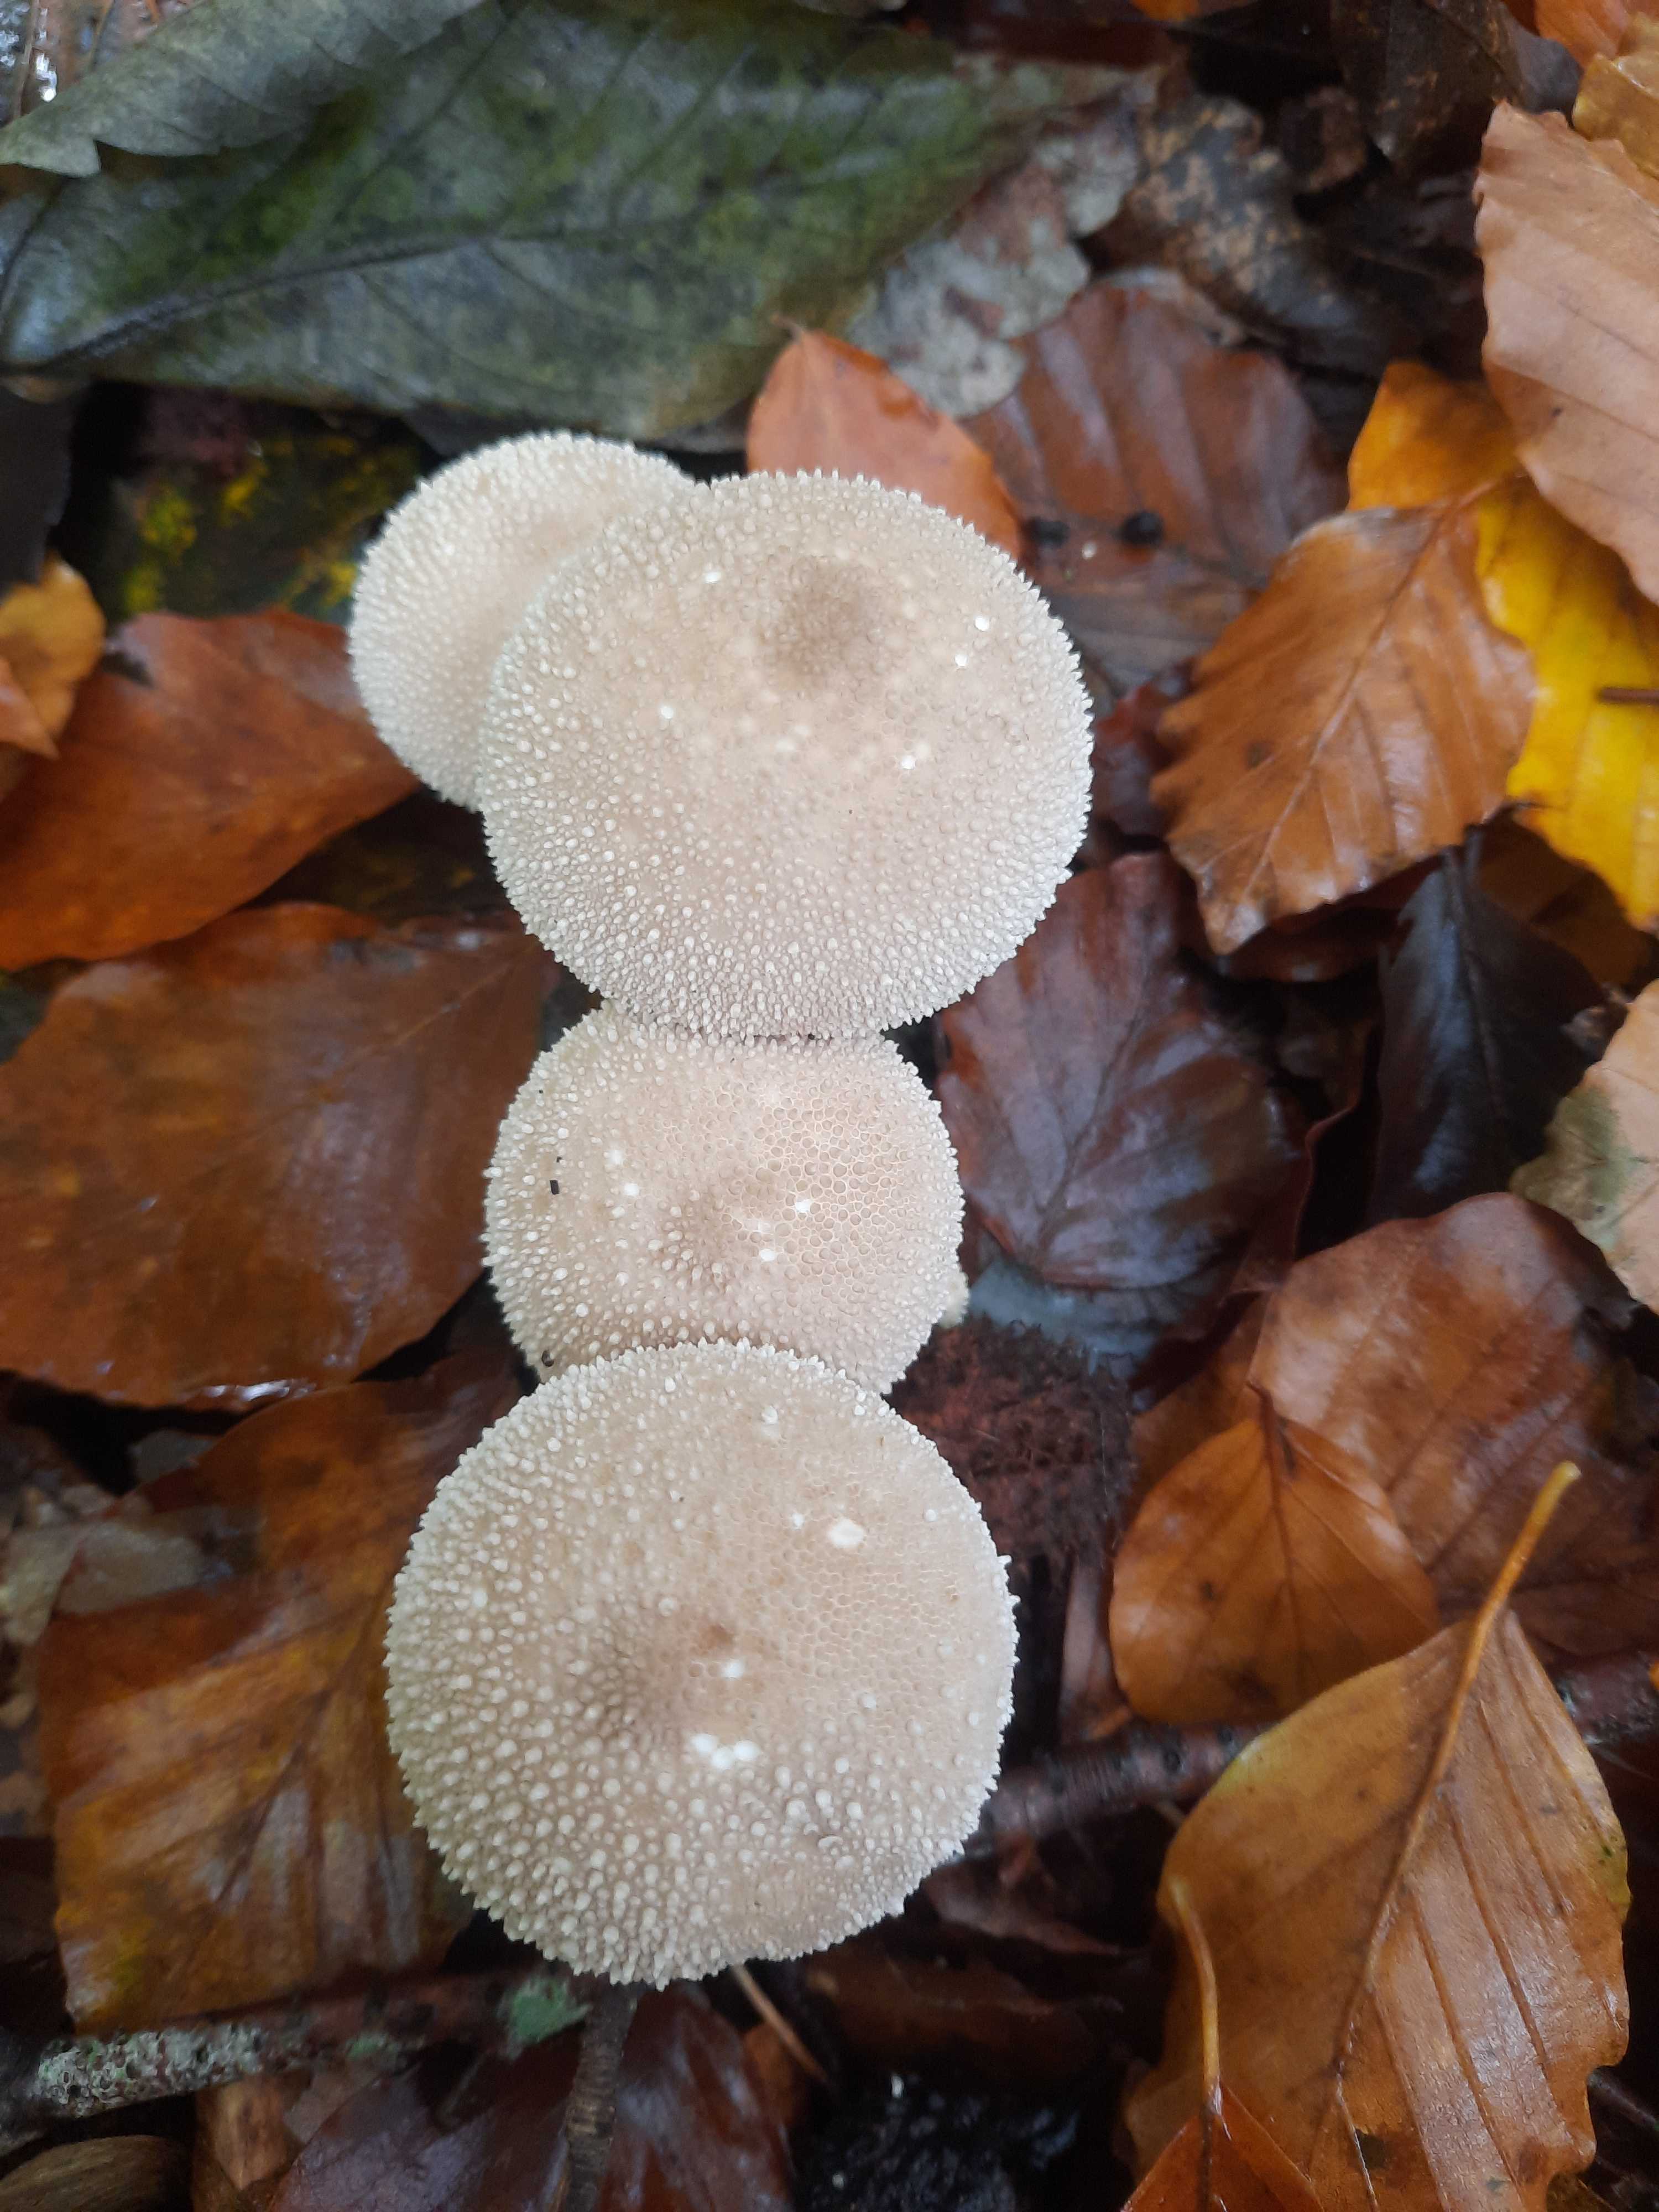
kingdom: Fungi
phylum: Basidiomycota
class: Agaricomycetes
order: Agaricales
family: Lycoperdaceae
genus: Lycoperdon
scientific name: Lycoperdon perlatum
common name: krystal-støvbold
